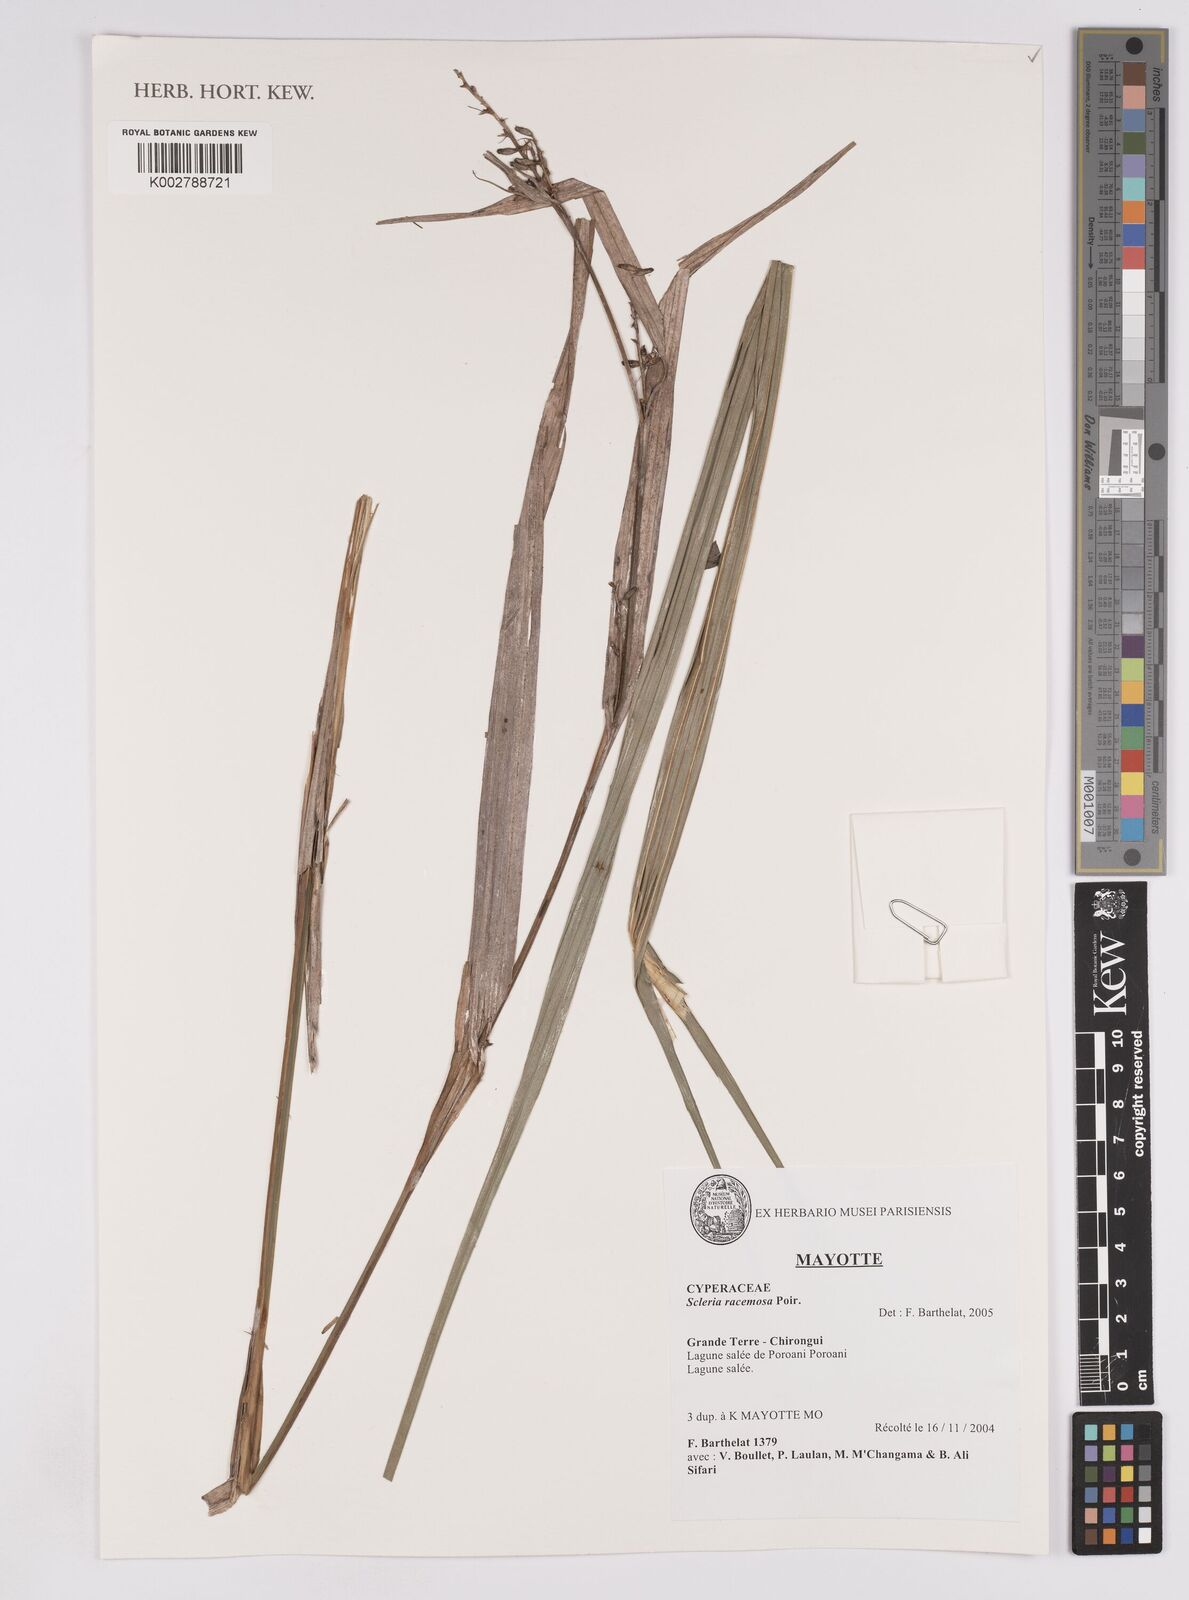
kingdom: Plantae
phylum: Tracheophyta
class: Liliopsida
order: Poales
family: Cyperaceae
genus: Scleria
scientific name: Scleria racemosa
